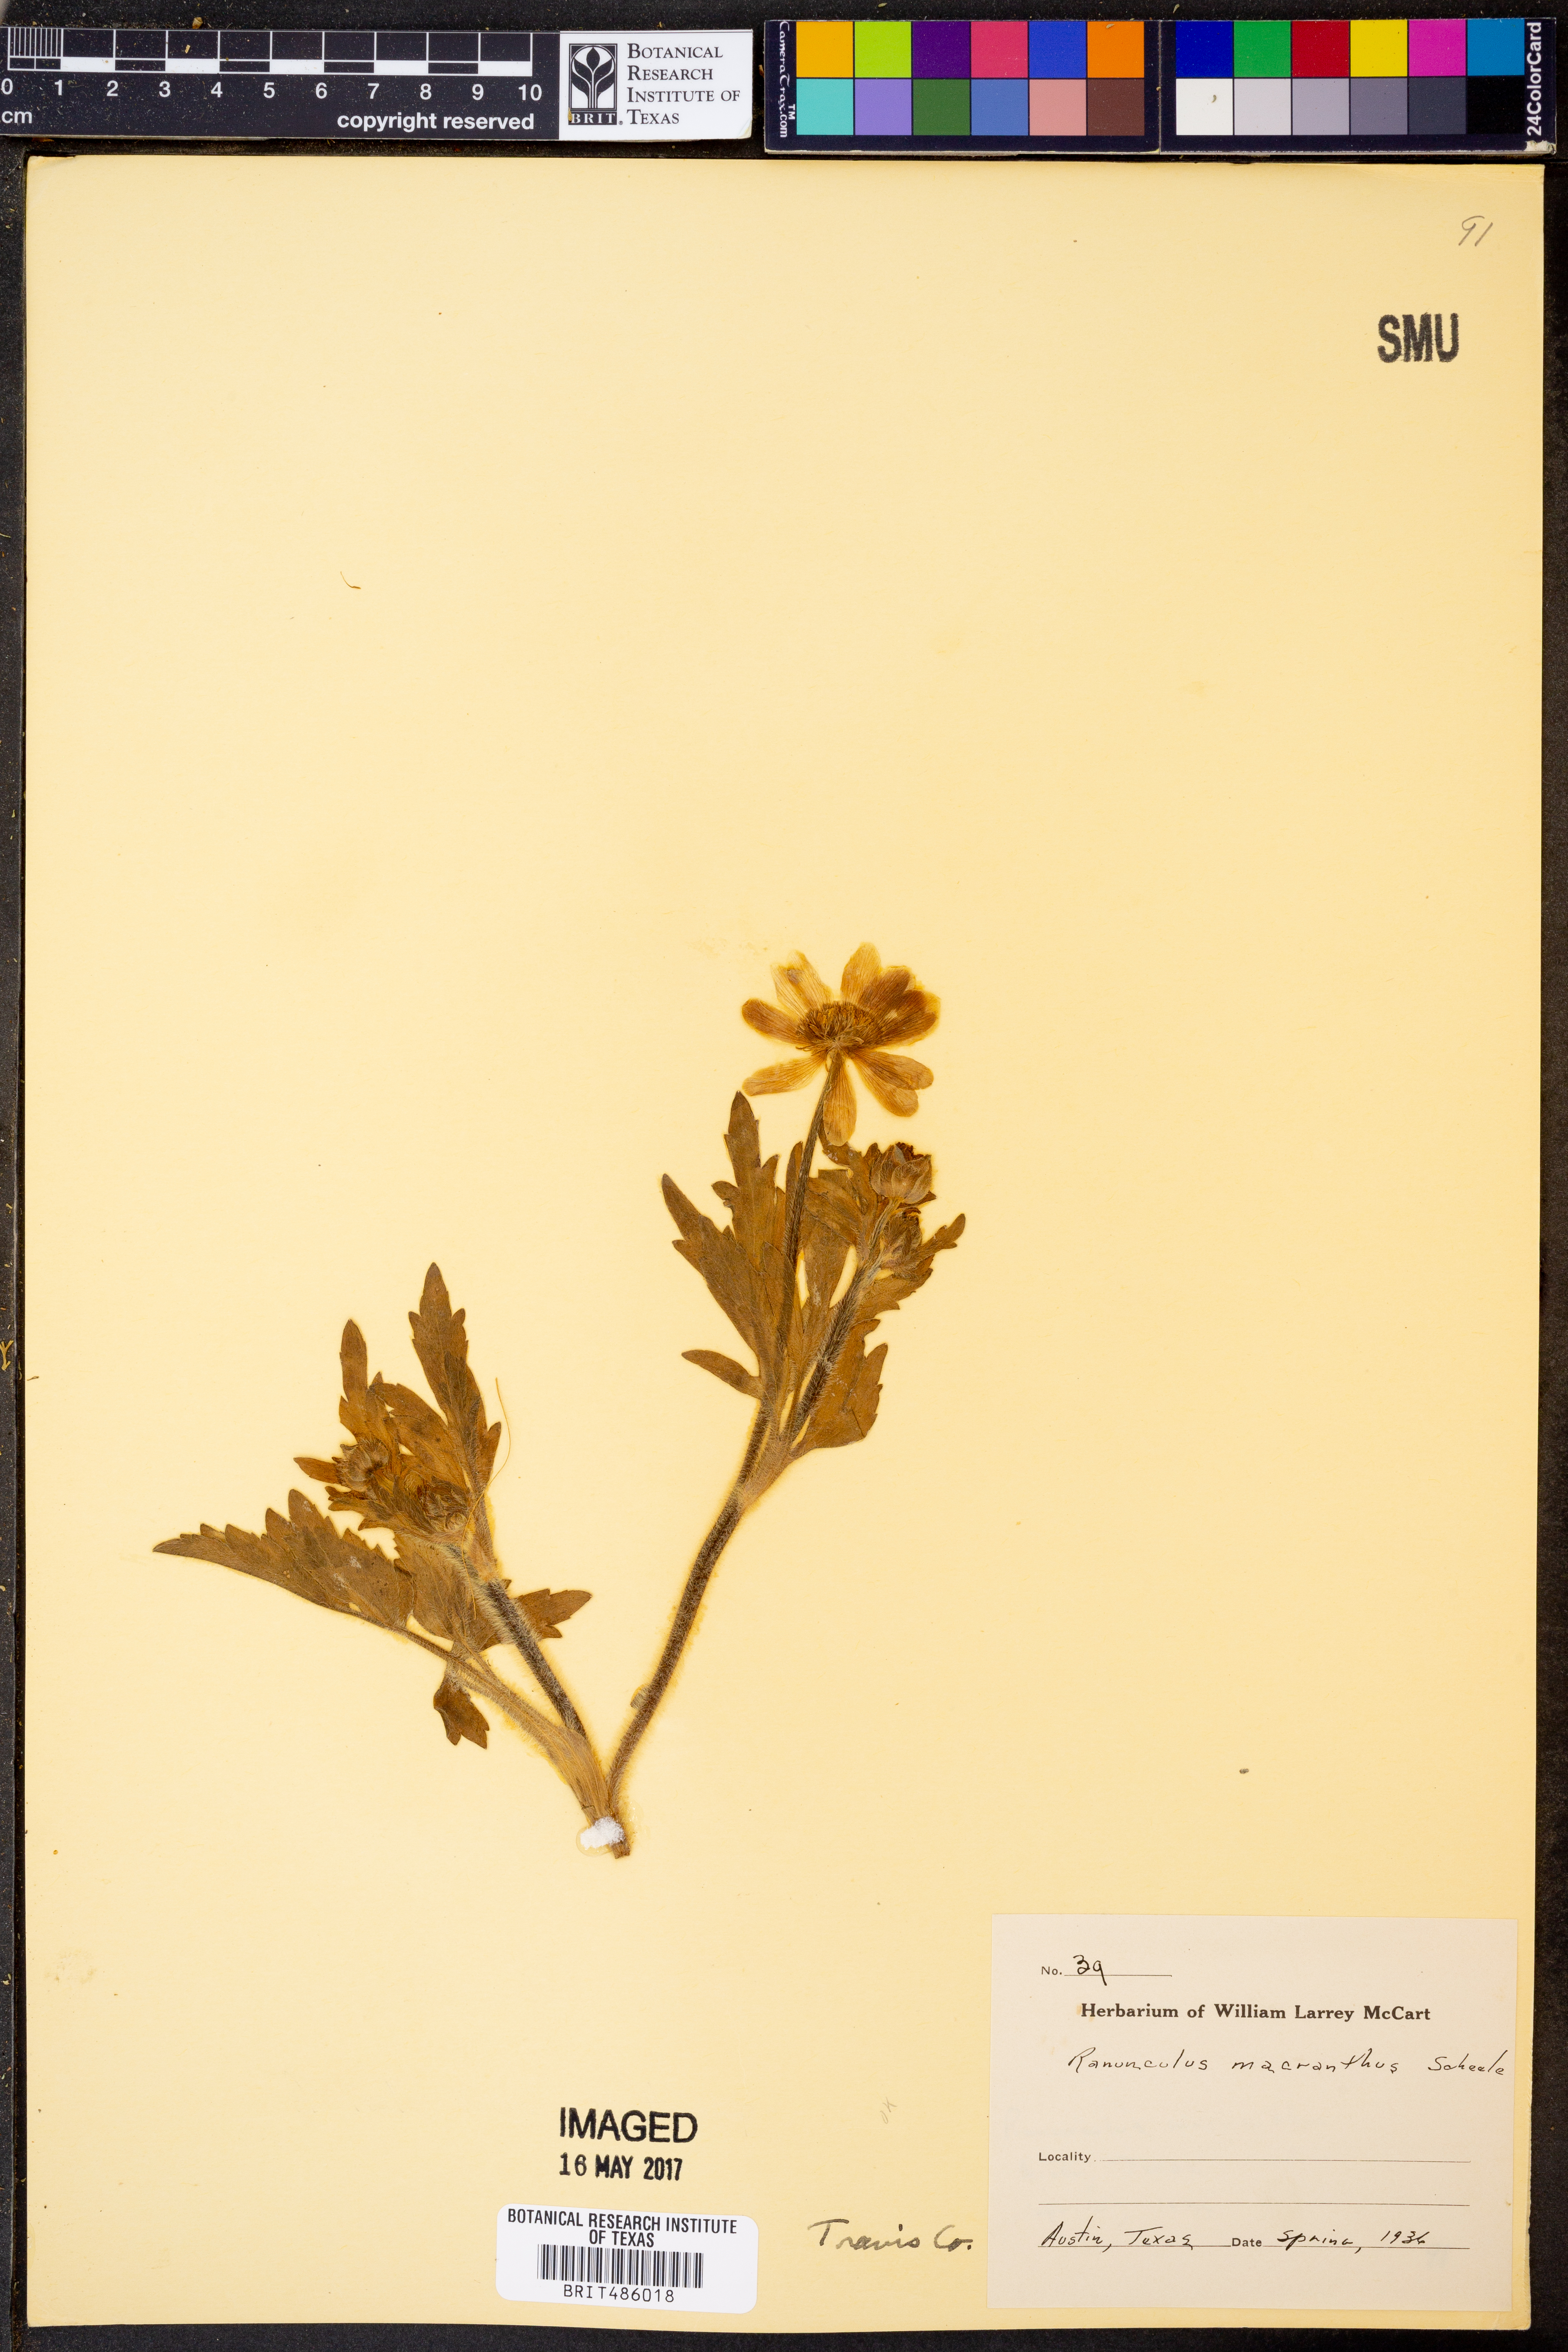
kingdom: Plantae
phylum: Tracheophyta
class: Magnoliopsida
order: Ranunculales
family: Ranunculaceae
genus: Ranunculus
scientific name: Ranunculus macranthus
